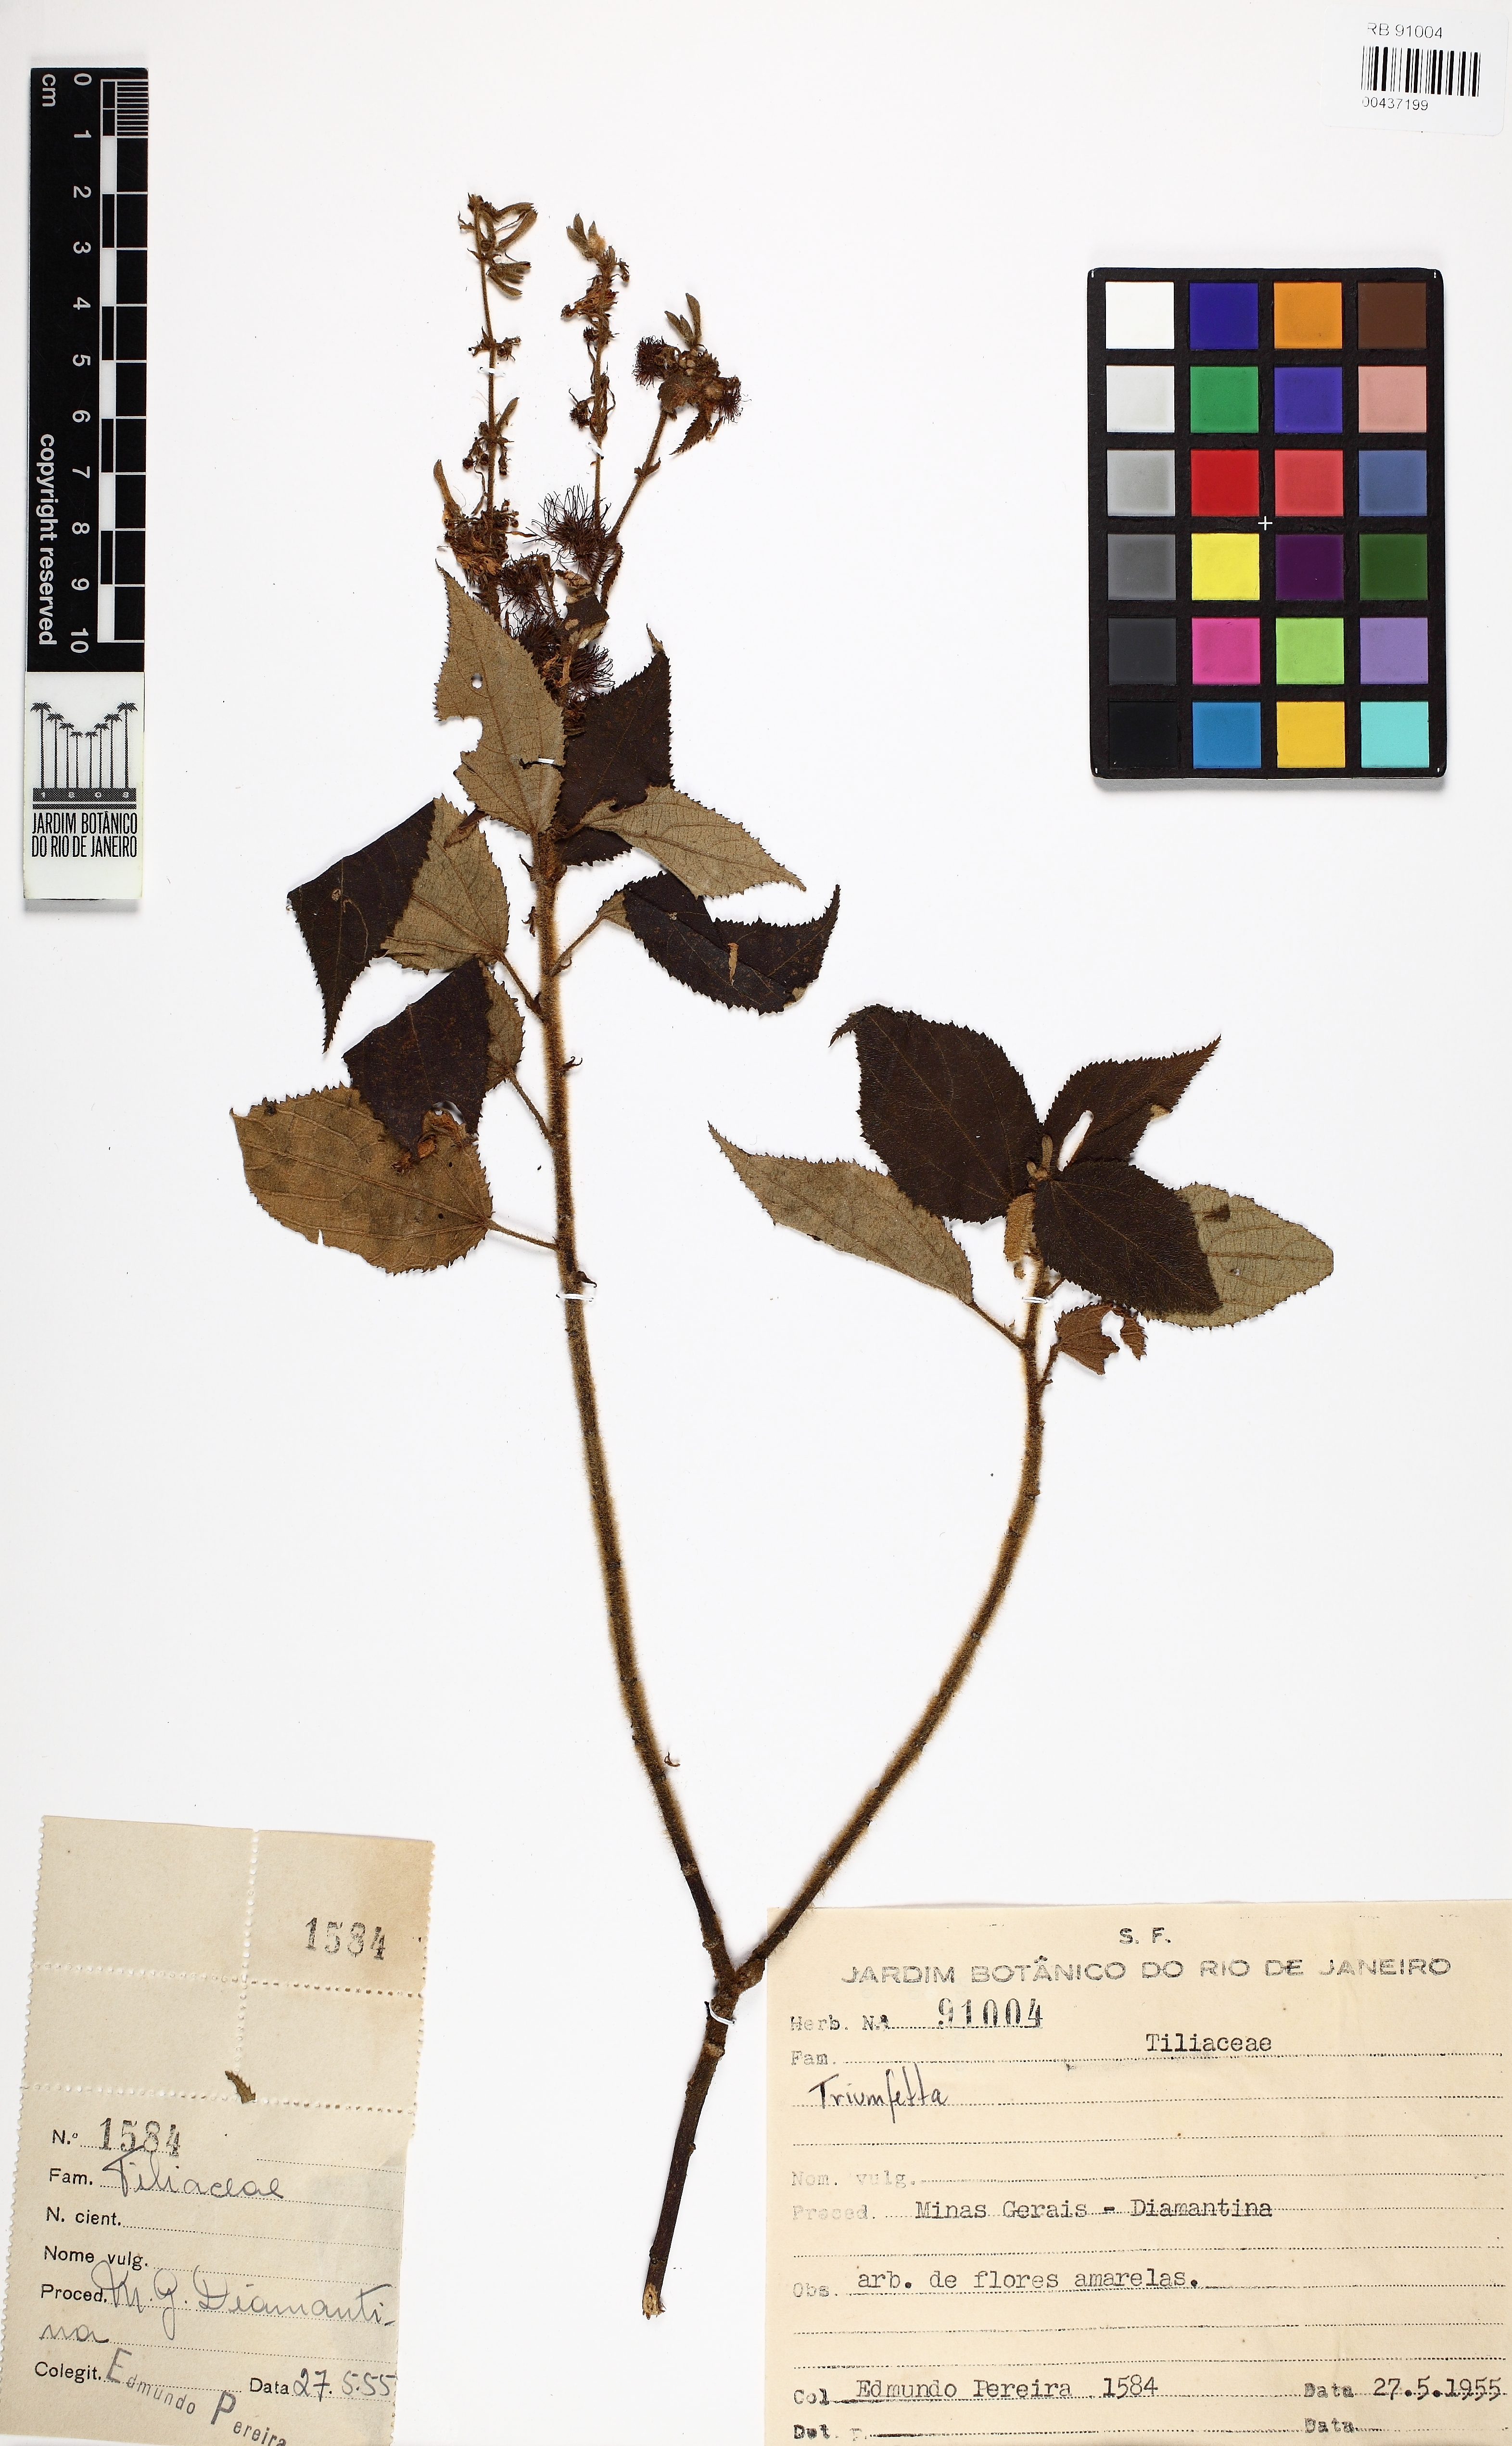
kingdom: Plantae
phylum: Tracheophyta
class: Magnoliopsida
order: Malvales
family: Malvaceae
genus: Triumfetta
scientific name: Triumfetta
